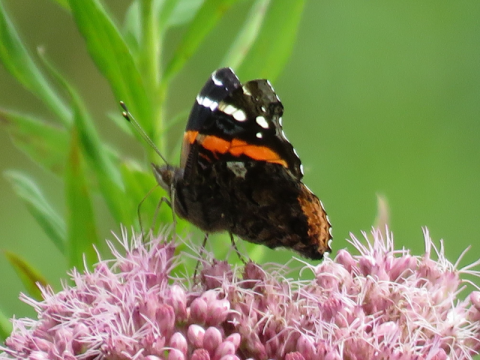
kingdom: Animalia
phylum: Arthropoda
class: Insecta
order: Lepidoptera
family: Nymphalidae
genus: Vanessa
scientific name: Vanessa atalanta
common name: Red Admiral
